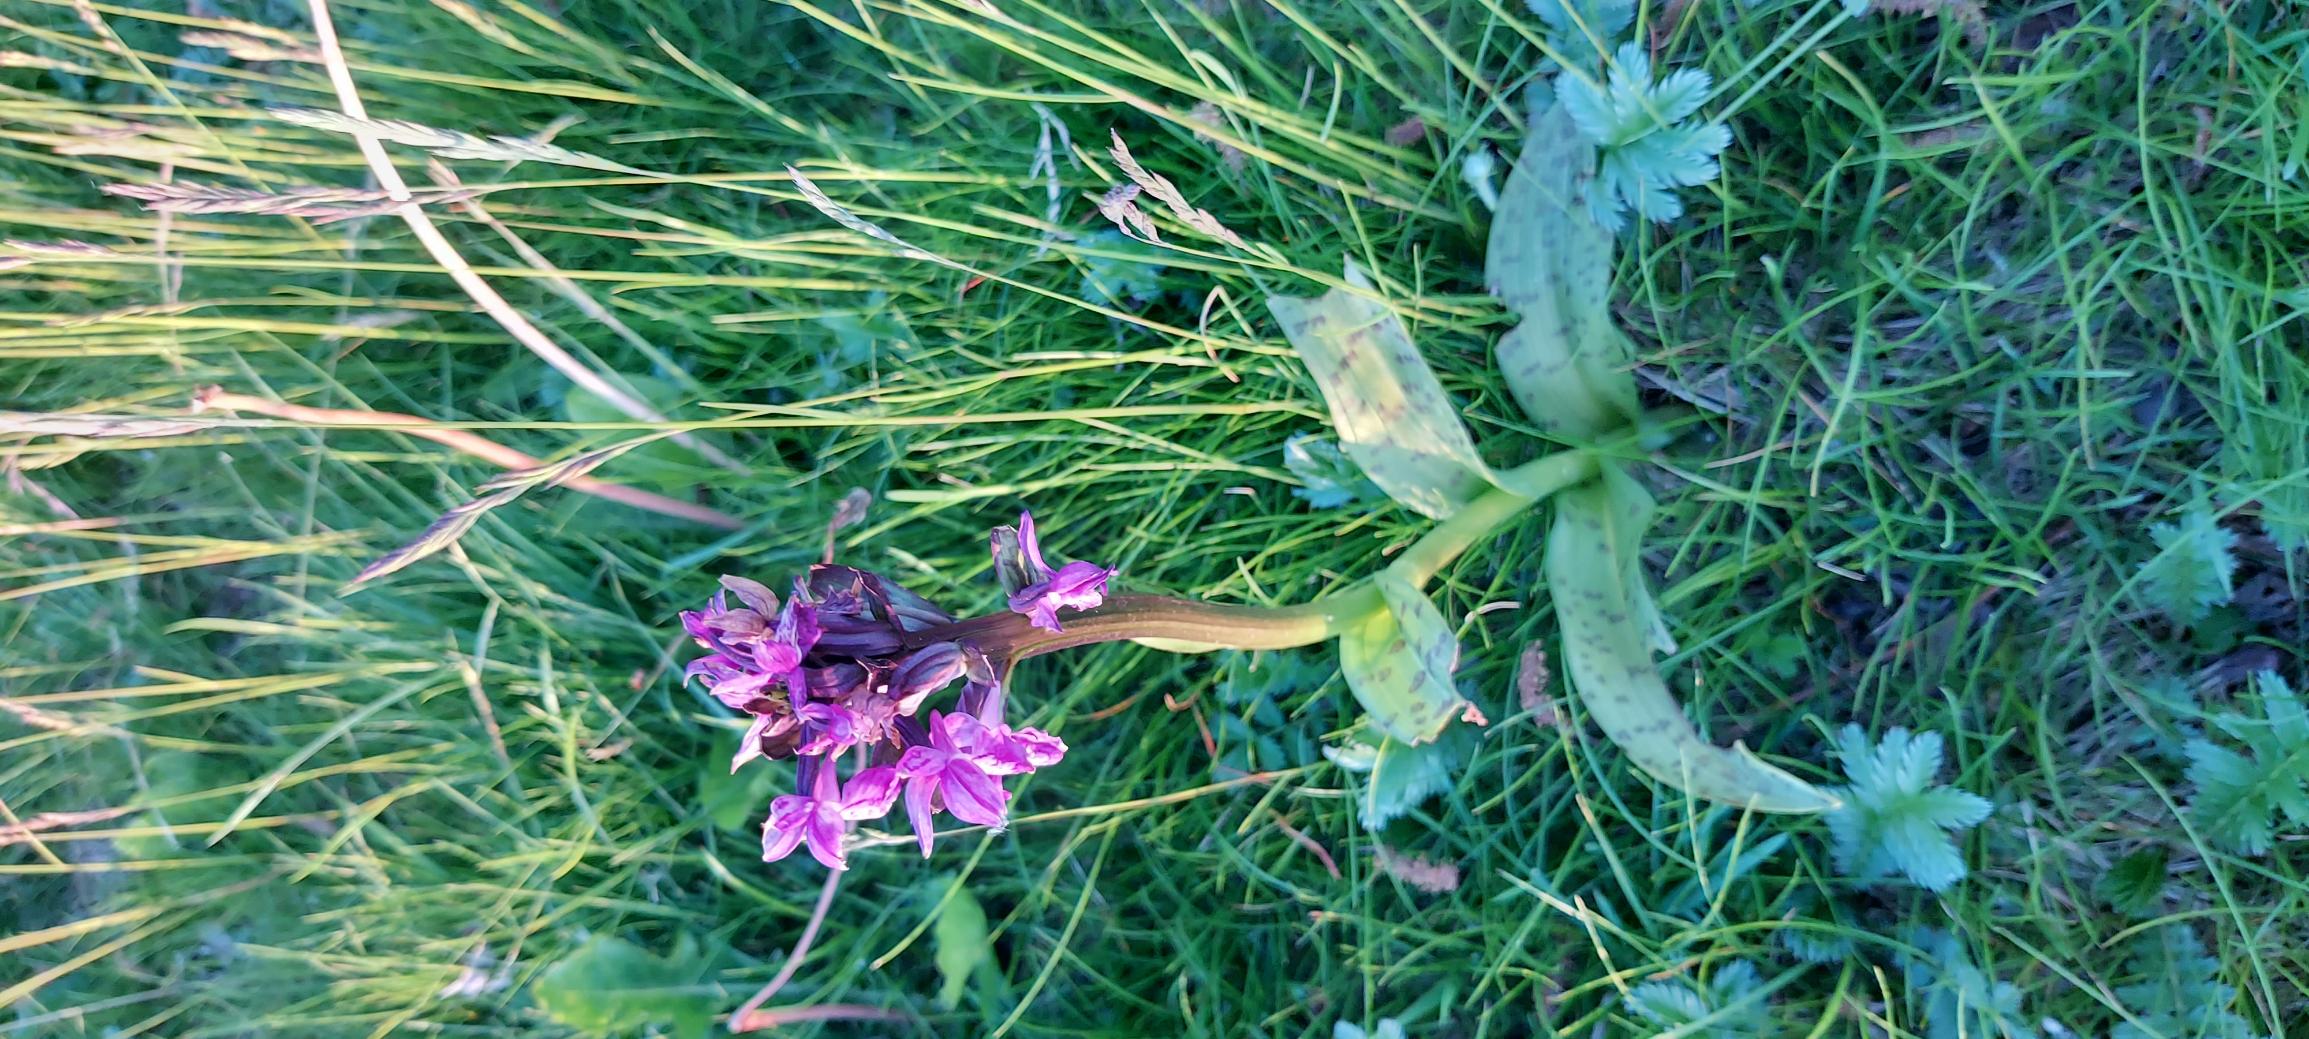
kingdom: Plantae
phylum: Tracheophyta
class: Liliopsida
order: Asparagales
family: Orchidaceae
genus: Dactylorhiza
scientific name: Dactylorhiza majalis
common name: Maj-gøgeurt
